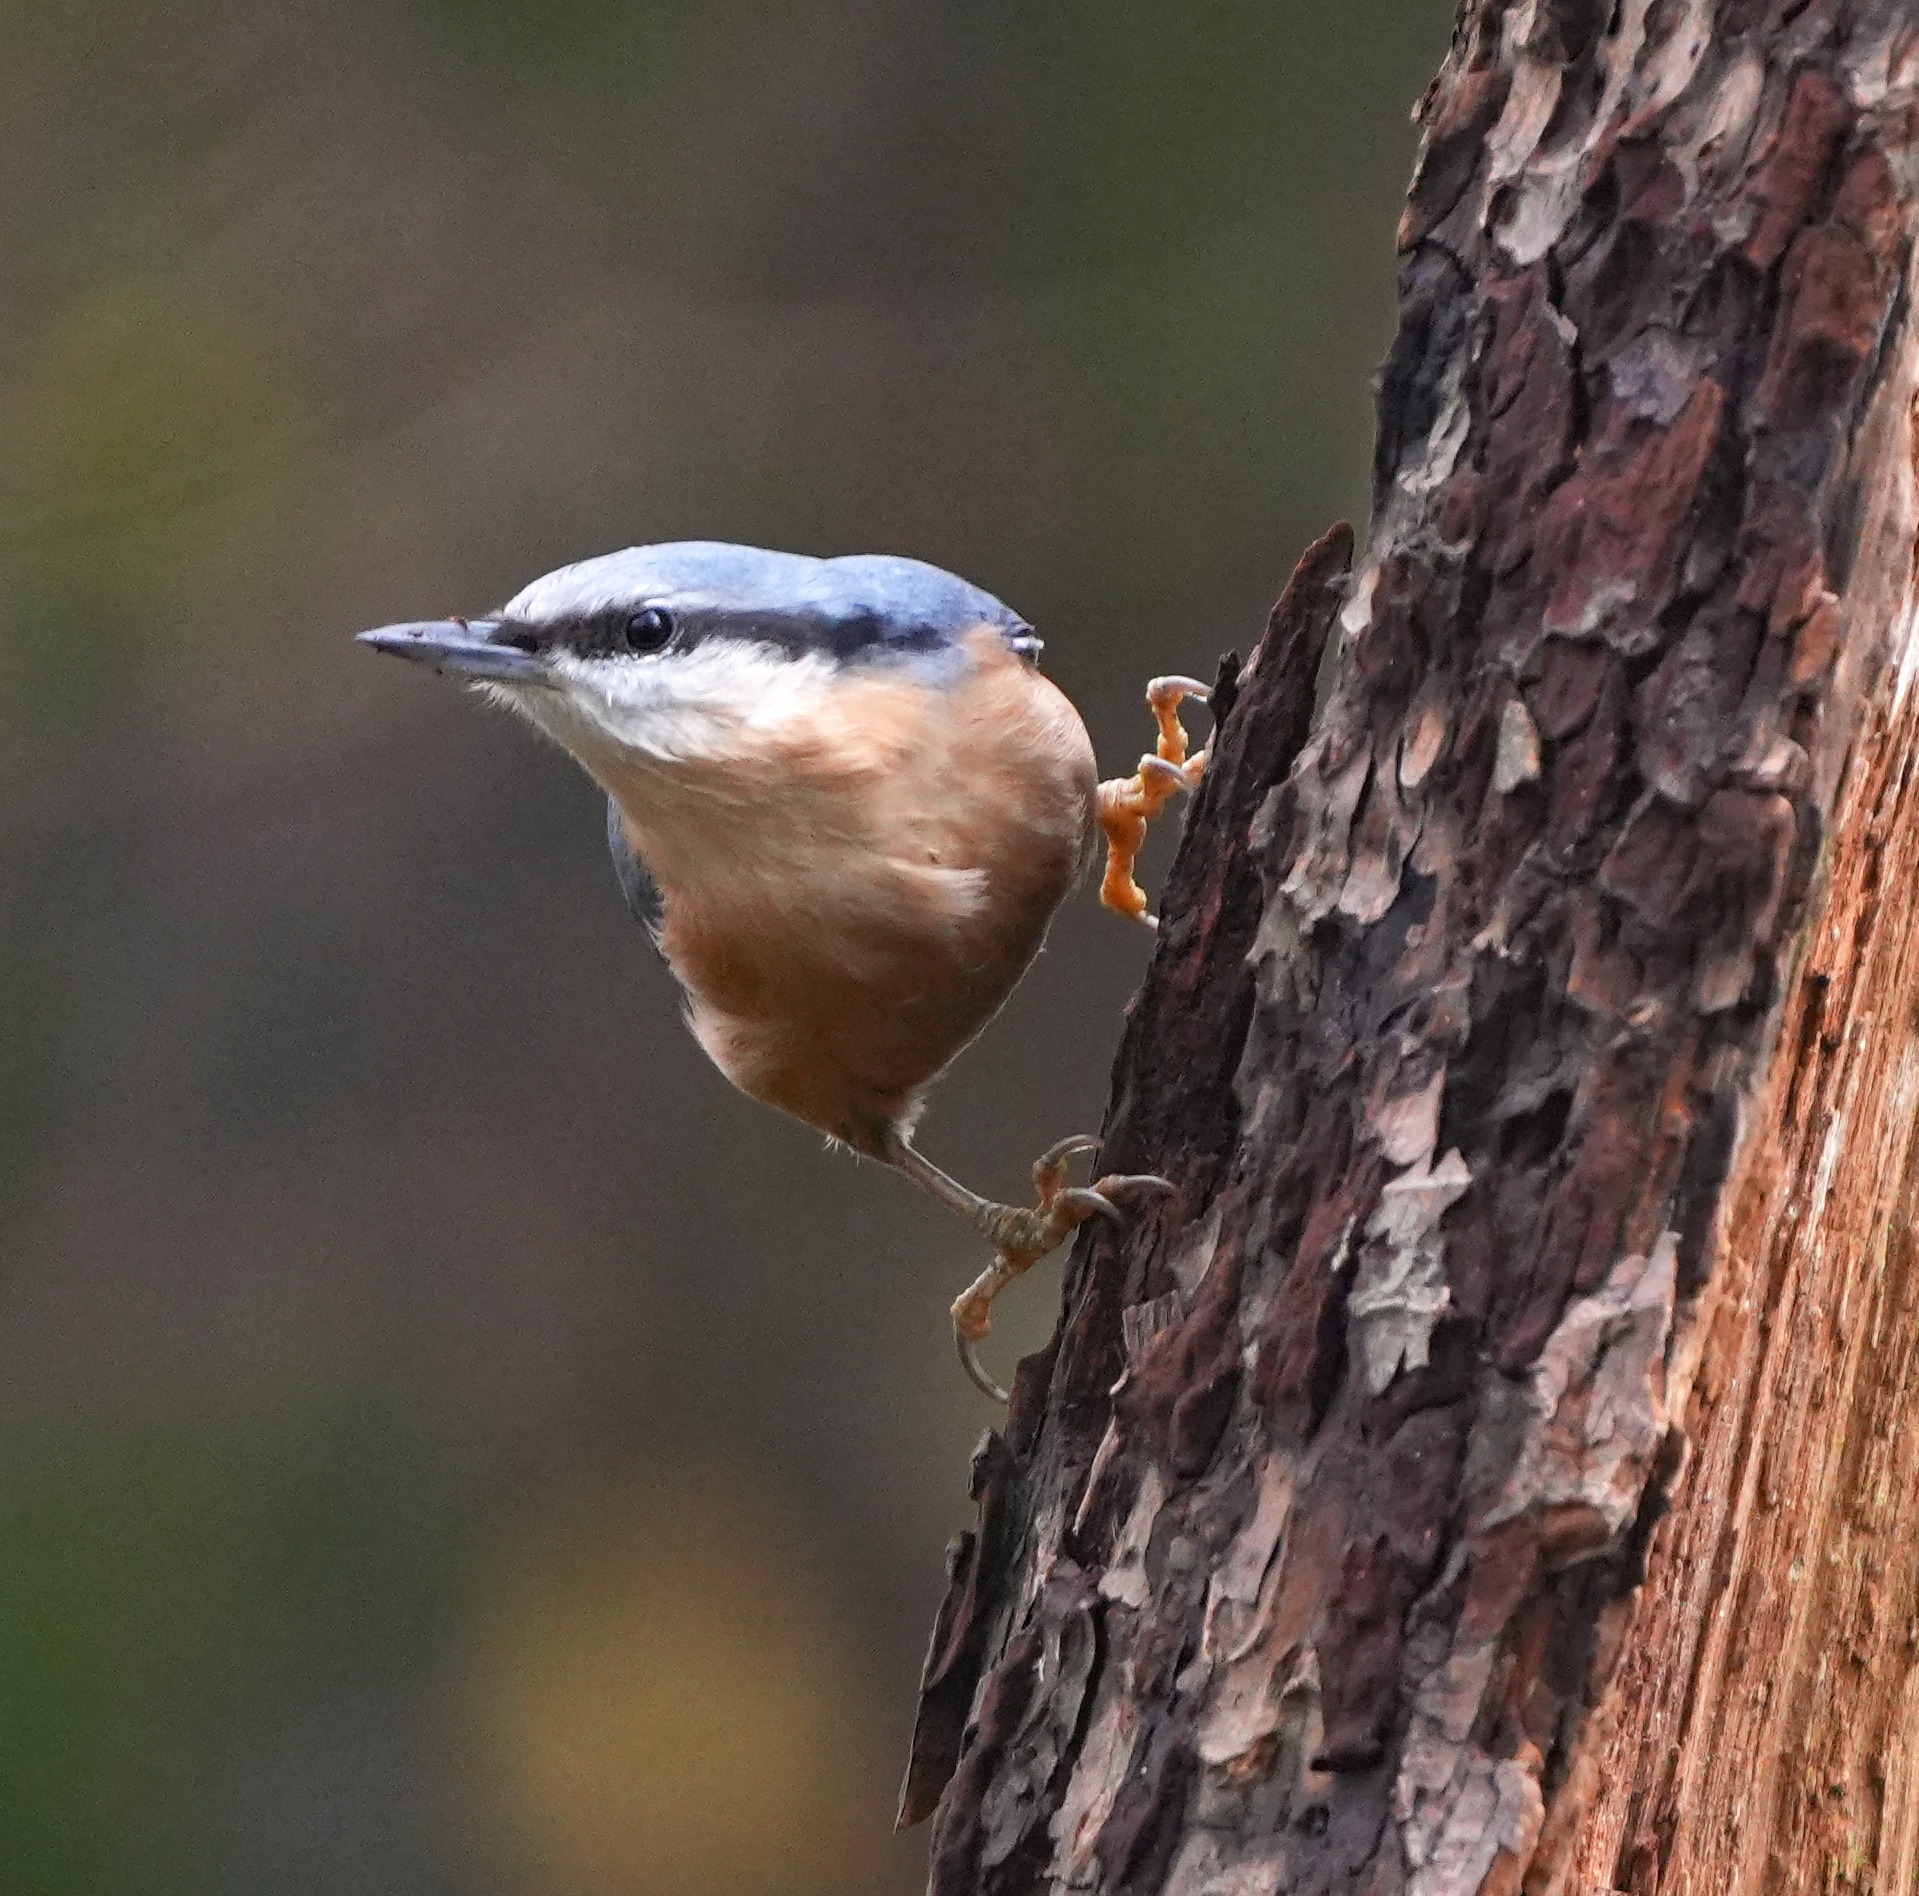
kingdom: Animalia
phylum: Chordata
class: Aves
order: Passeriformes
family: Sittidae
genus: Sitta
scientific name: Sitta europaea
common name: Spætmejse
